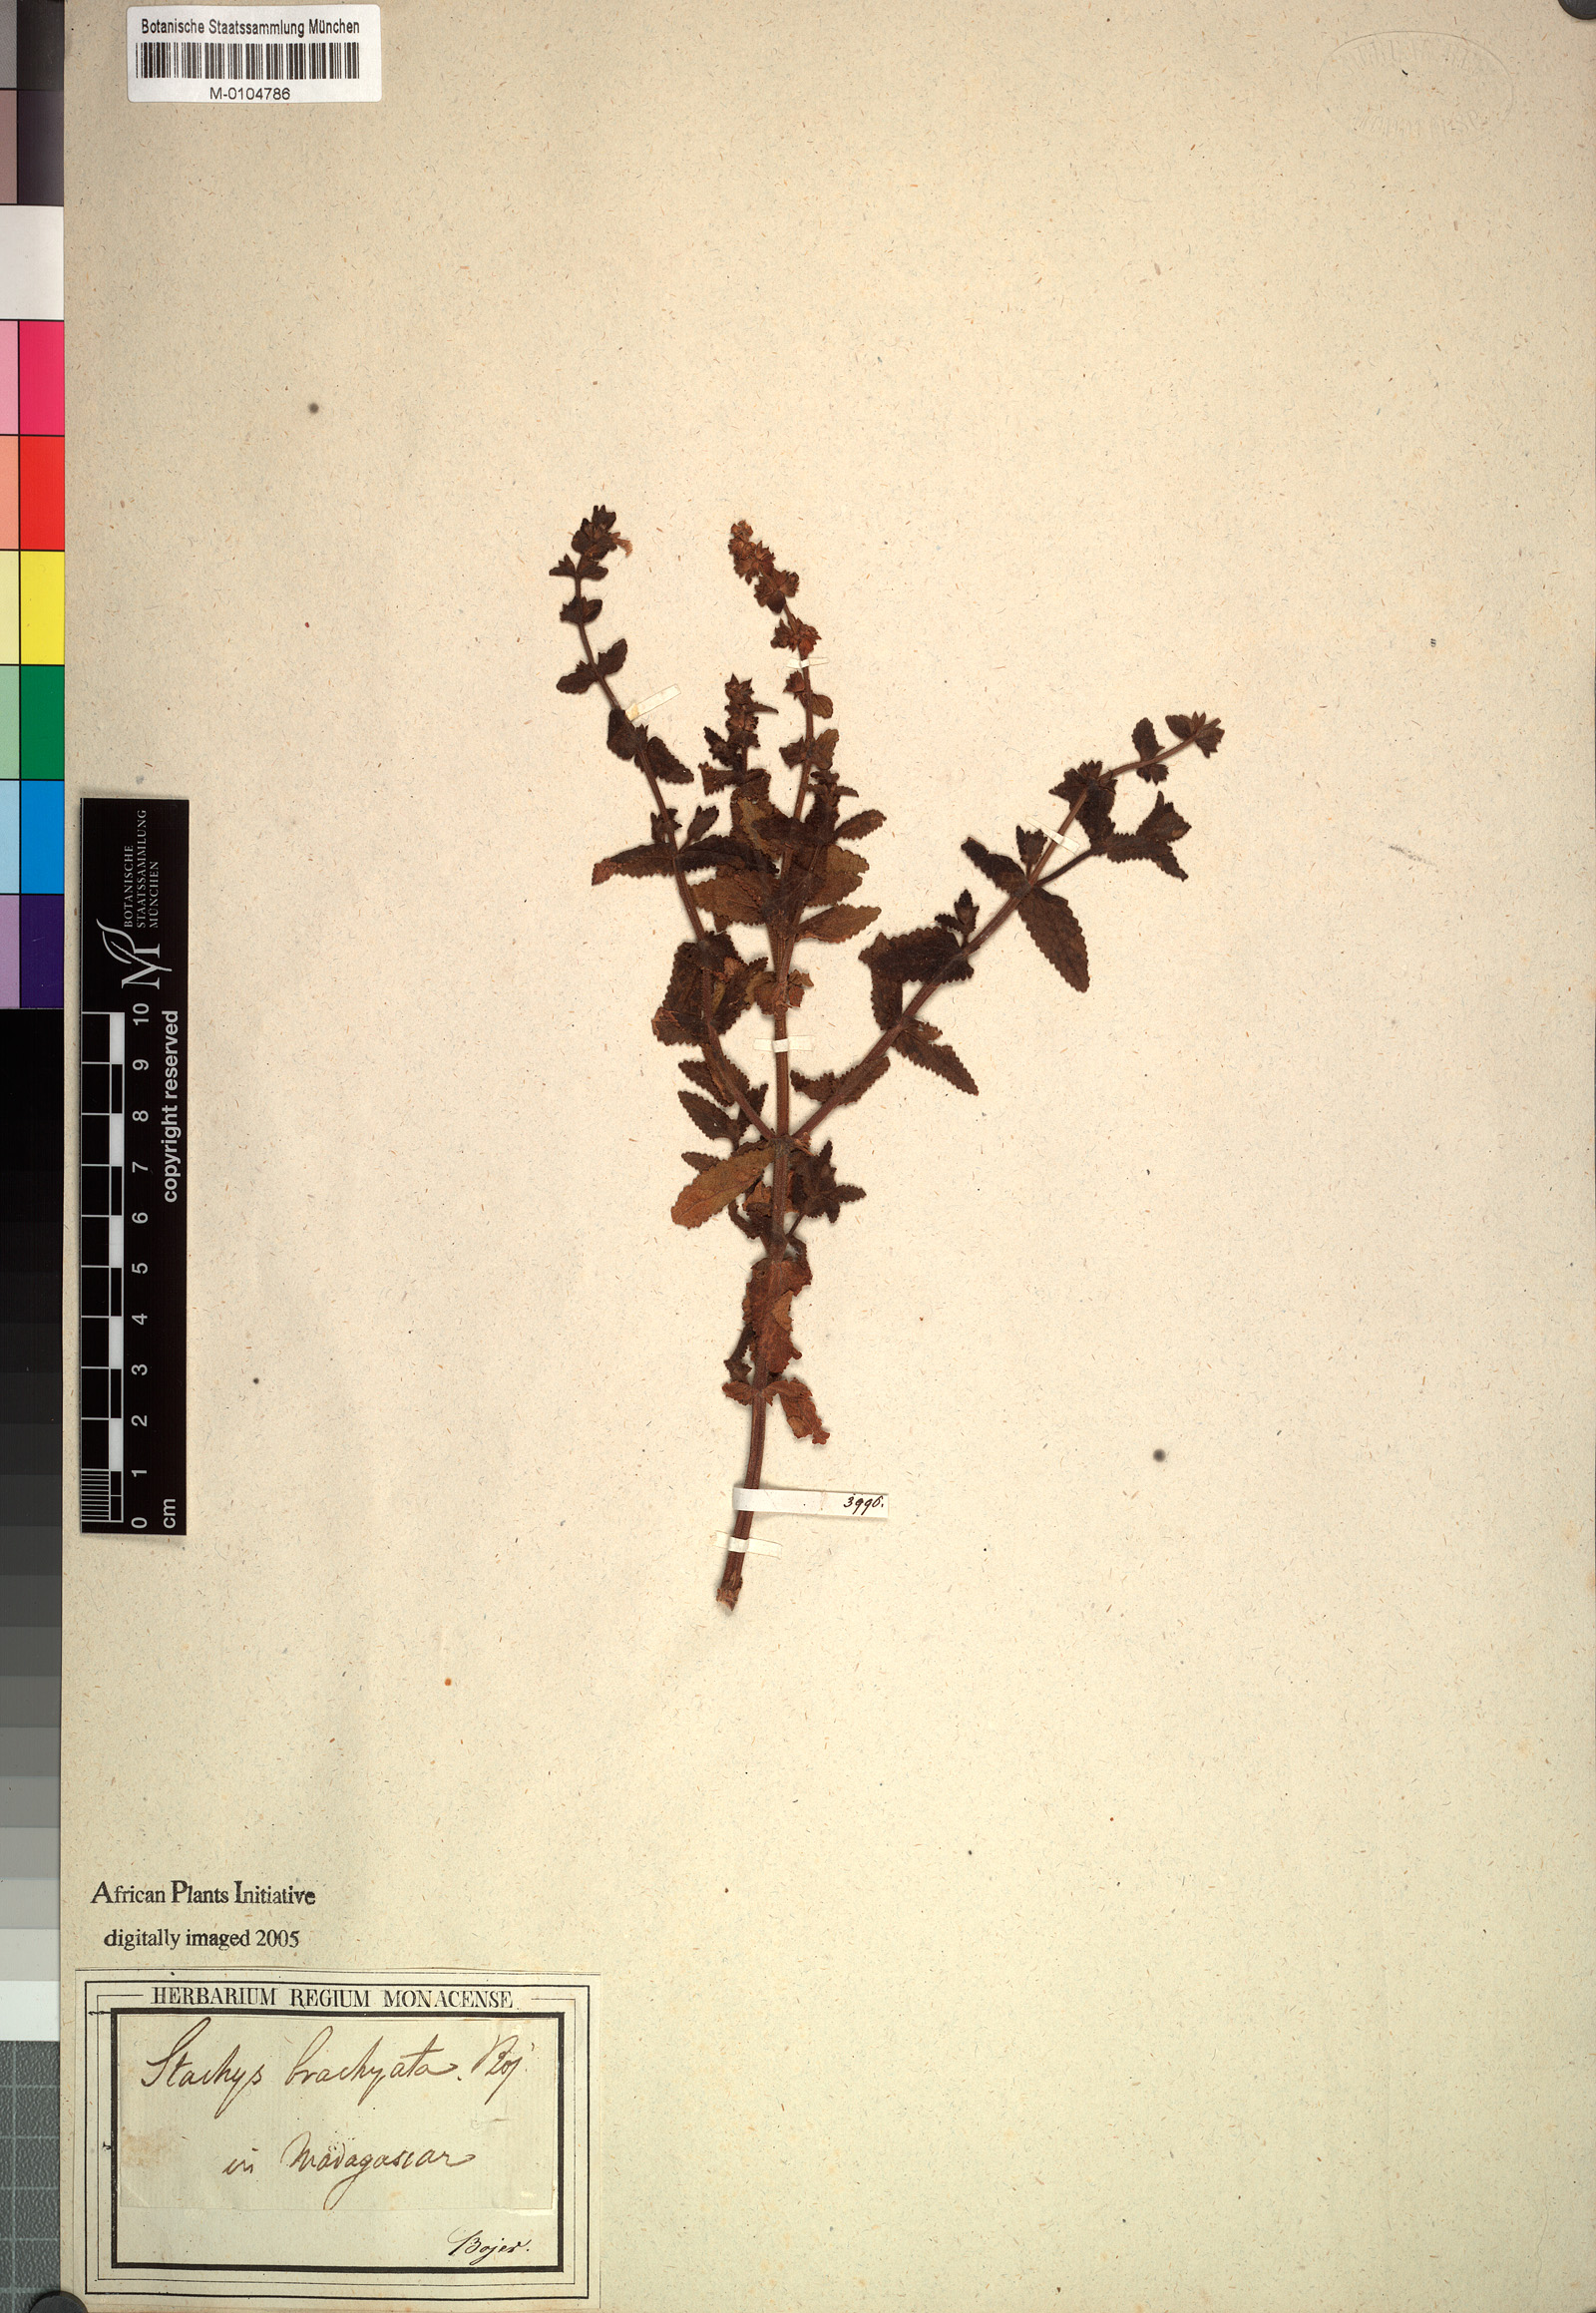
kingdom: Plantae
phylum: Tracheophyta
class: Magnoliopsida
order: Lamiales
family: Lamiaceae
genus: Stachys
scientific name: Stachys brachiata
